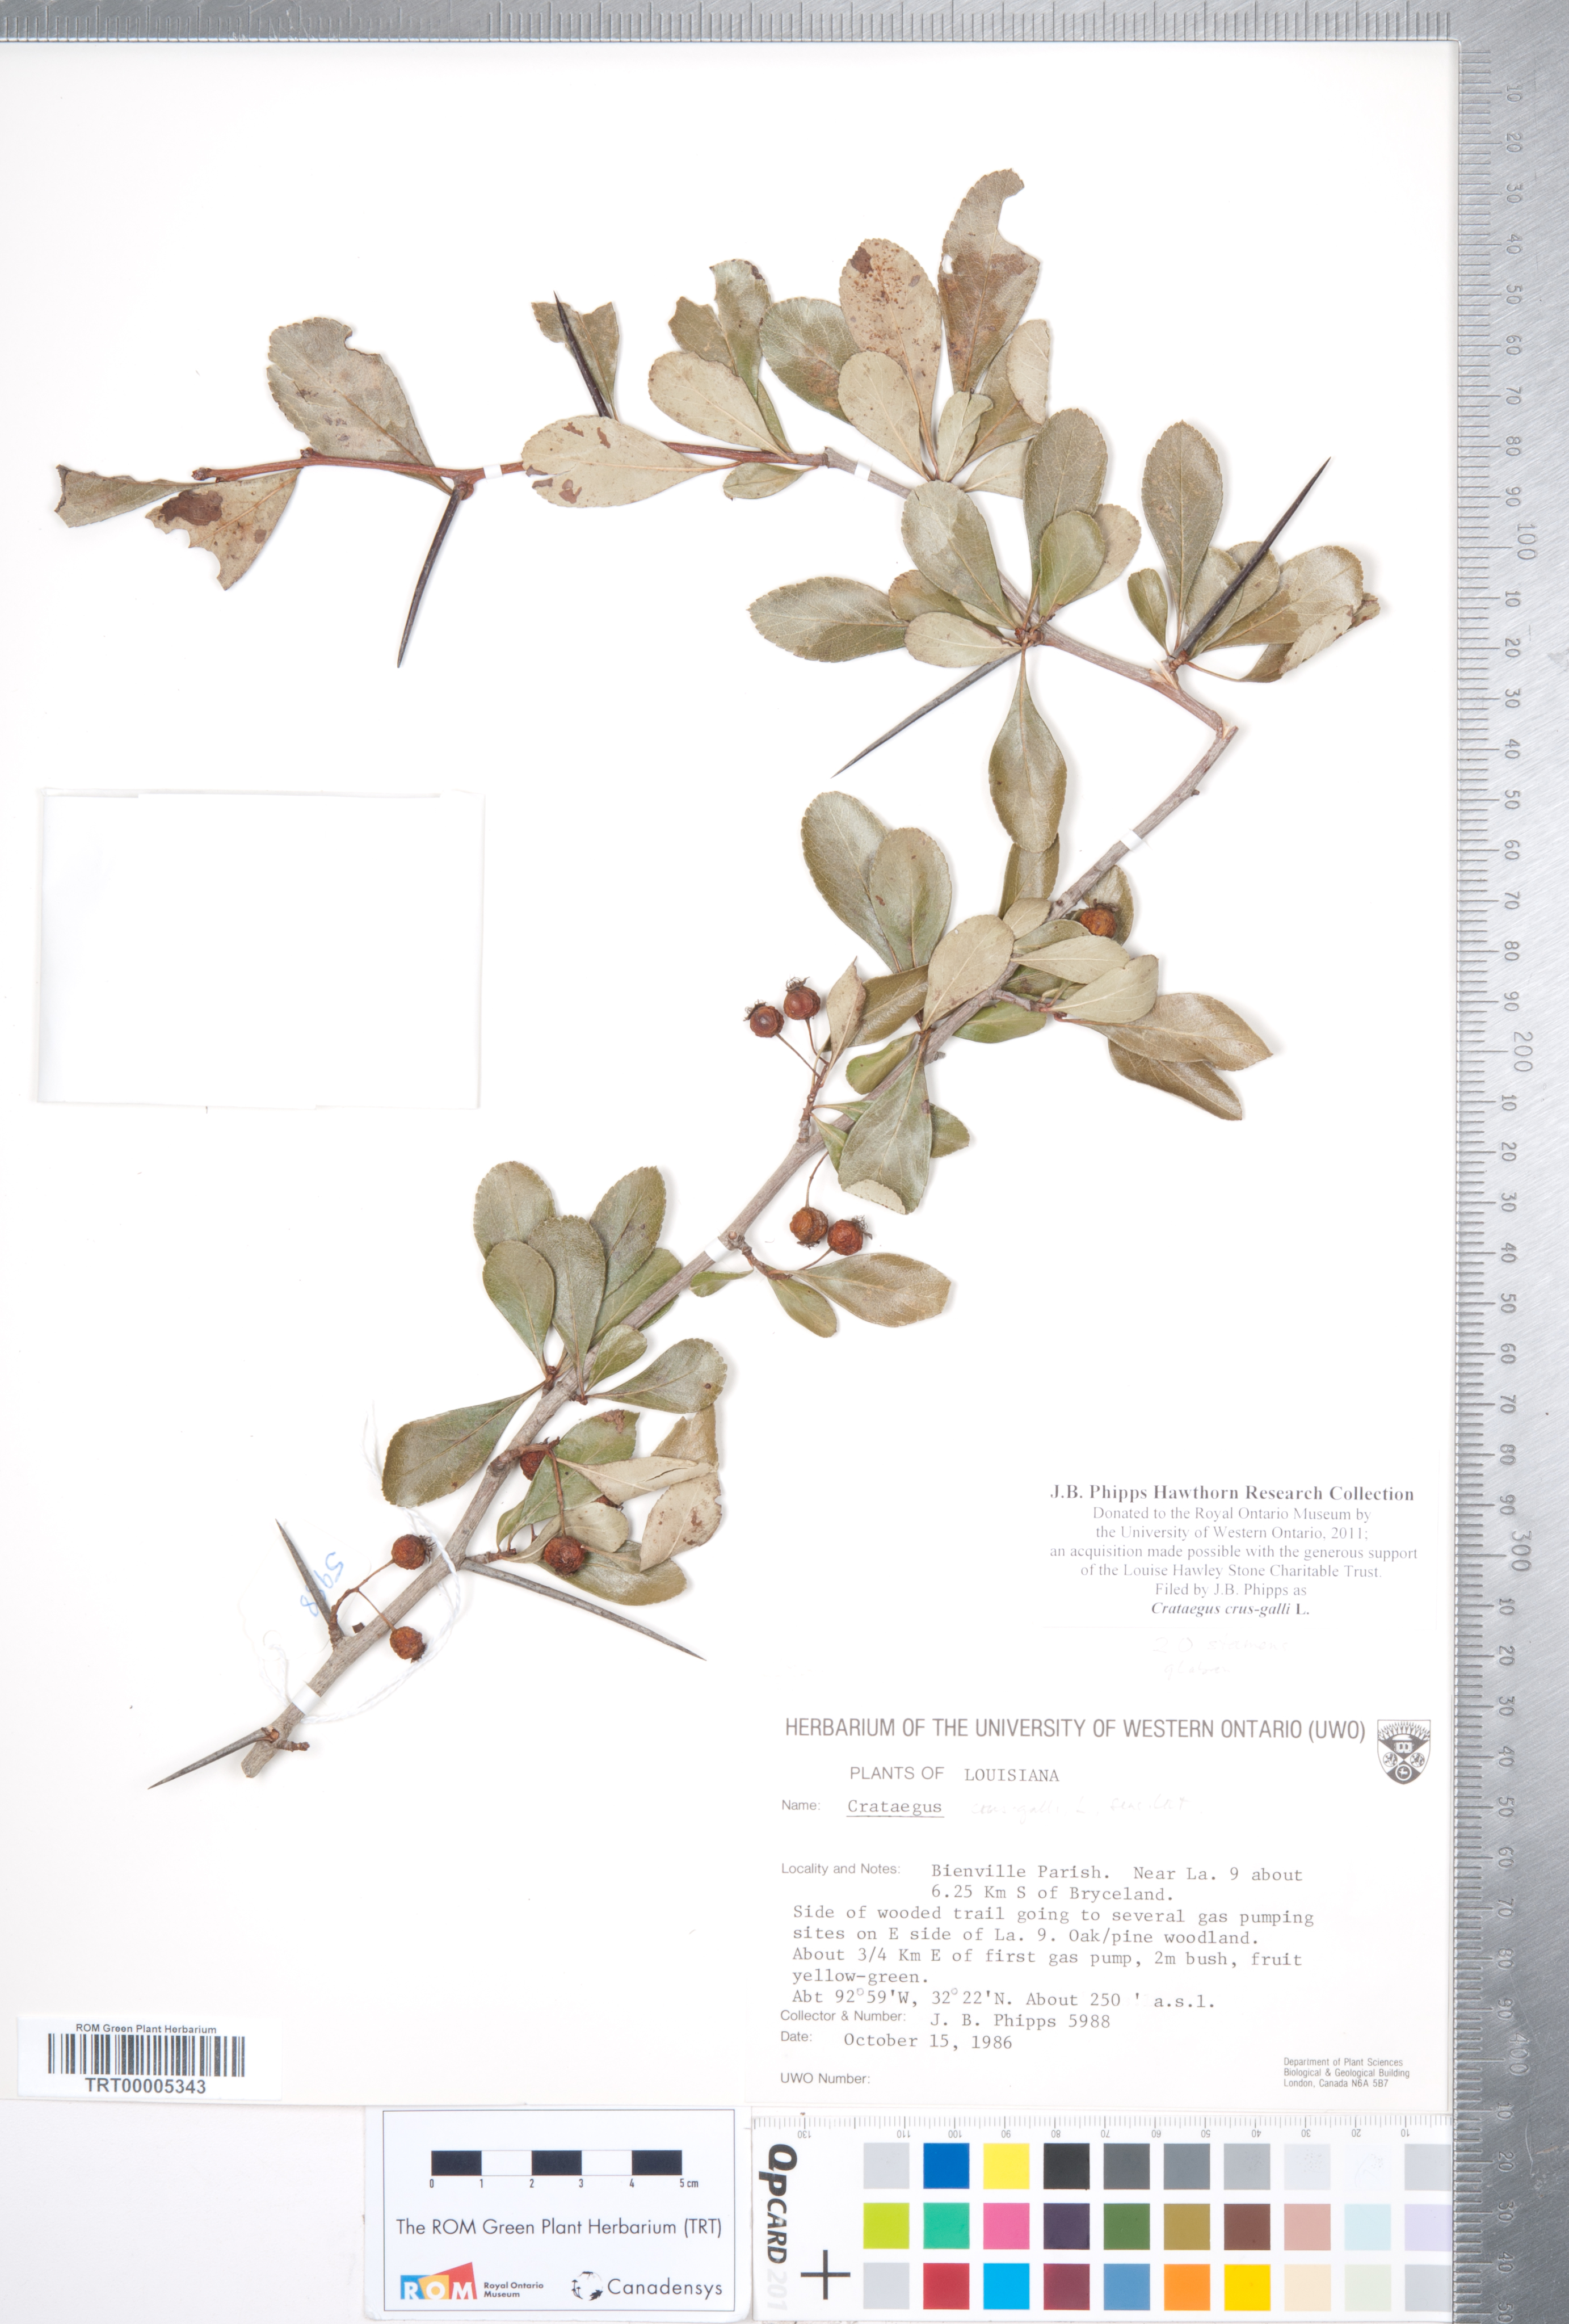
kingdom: Plantae
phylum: Tracheophyta
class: Magnoliopsida
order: Rosales
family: Rosaceae
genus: Crataegus
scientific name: Crataegus crus-galli
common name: Cockspurthorn
